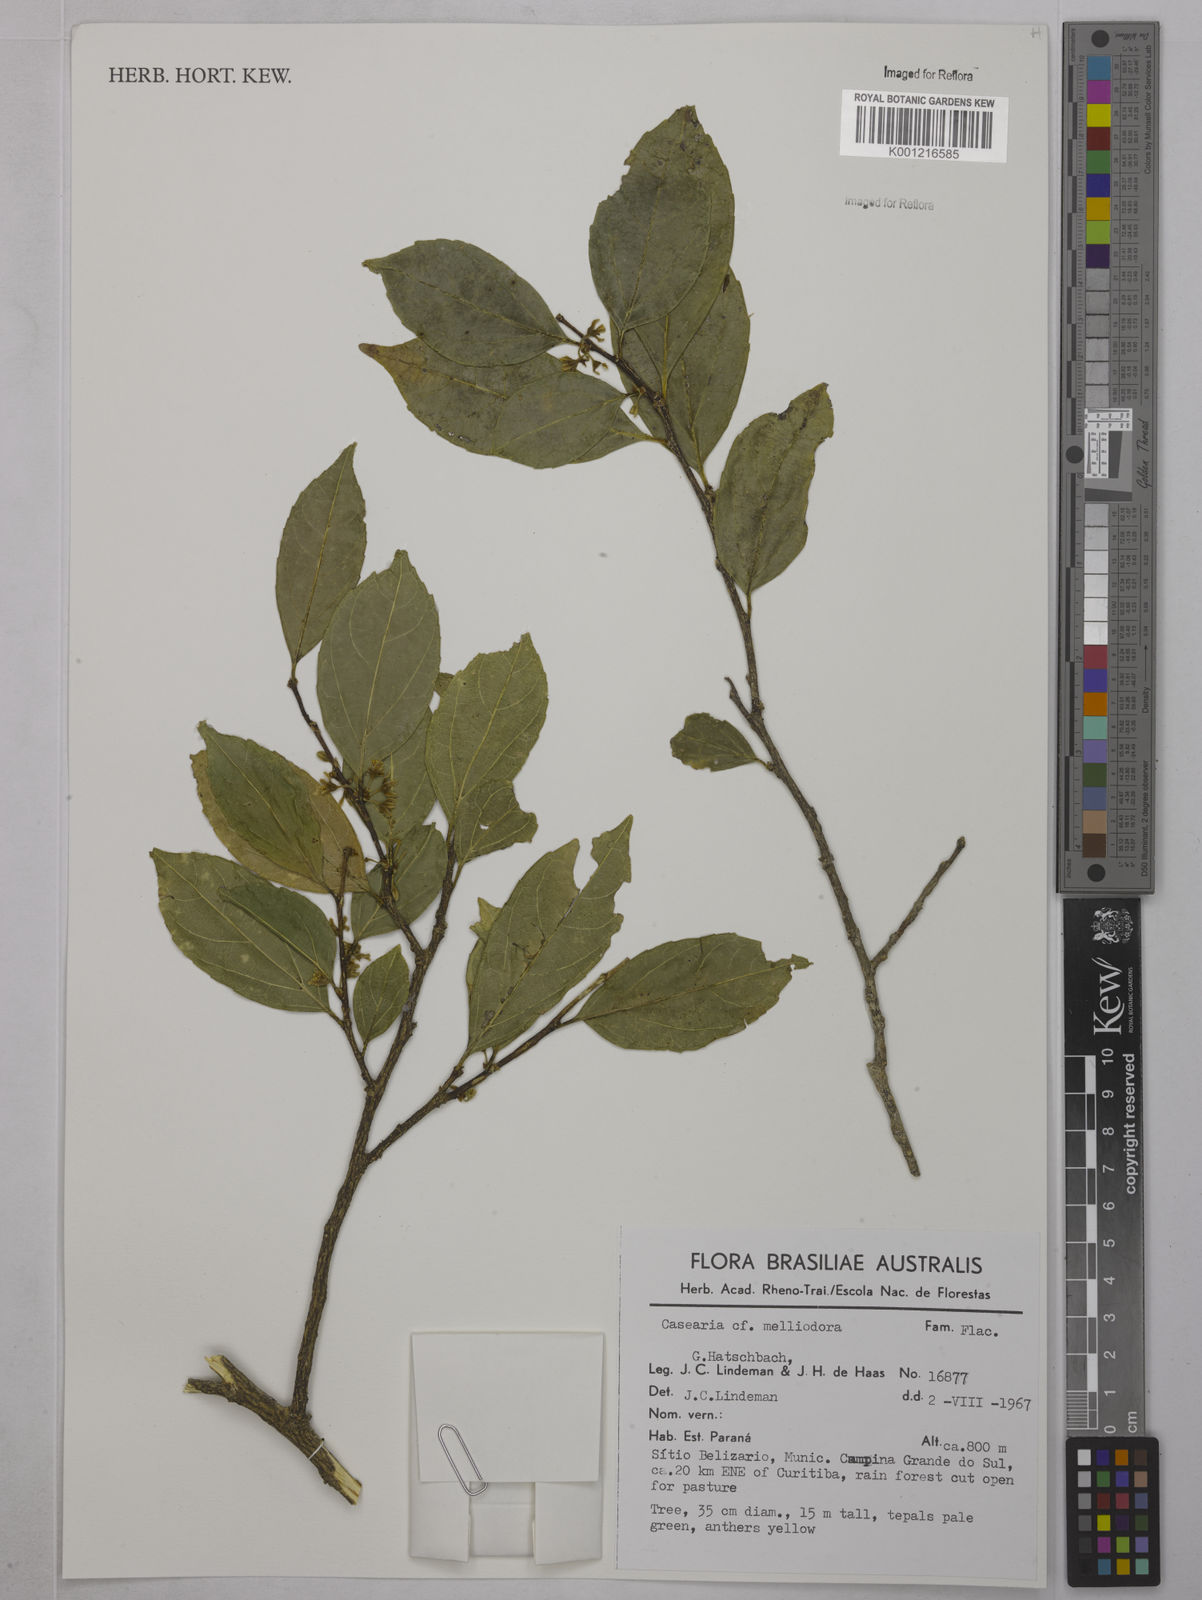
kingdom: Plantae
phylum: Tracheophyta
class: Magnoliopsida
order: Malpighiales
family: Salicaceae
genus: Casearia
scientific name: Casearia melliodora
